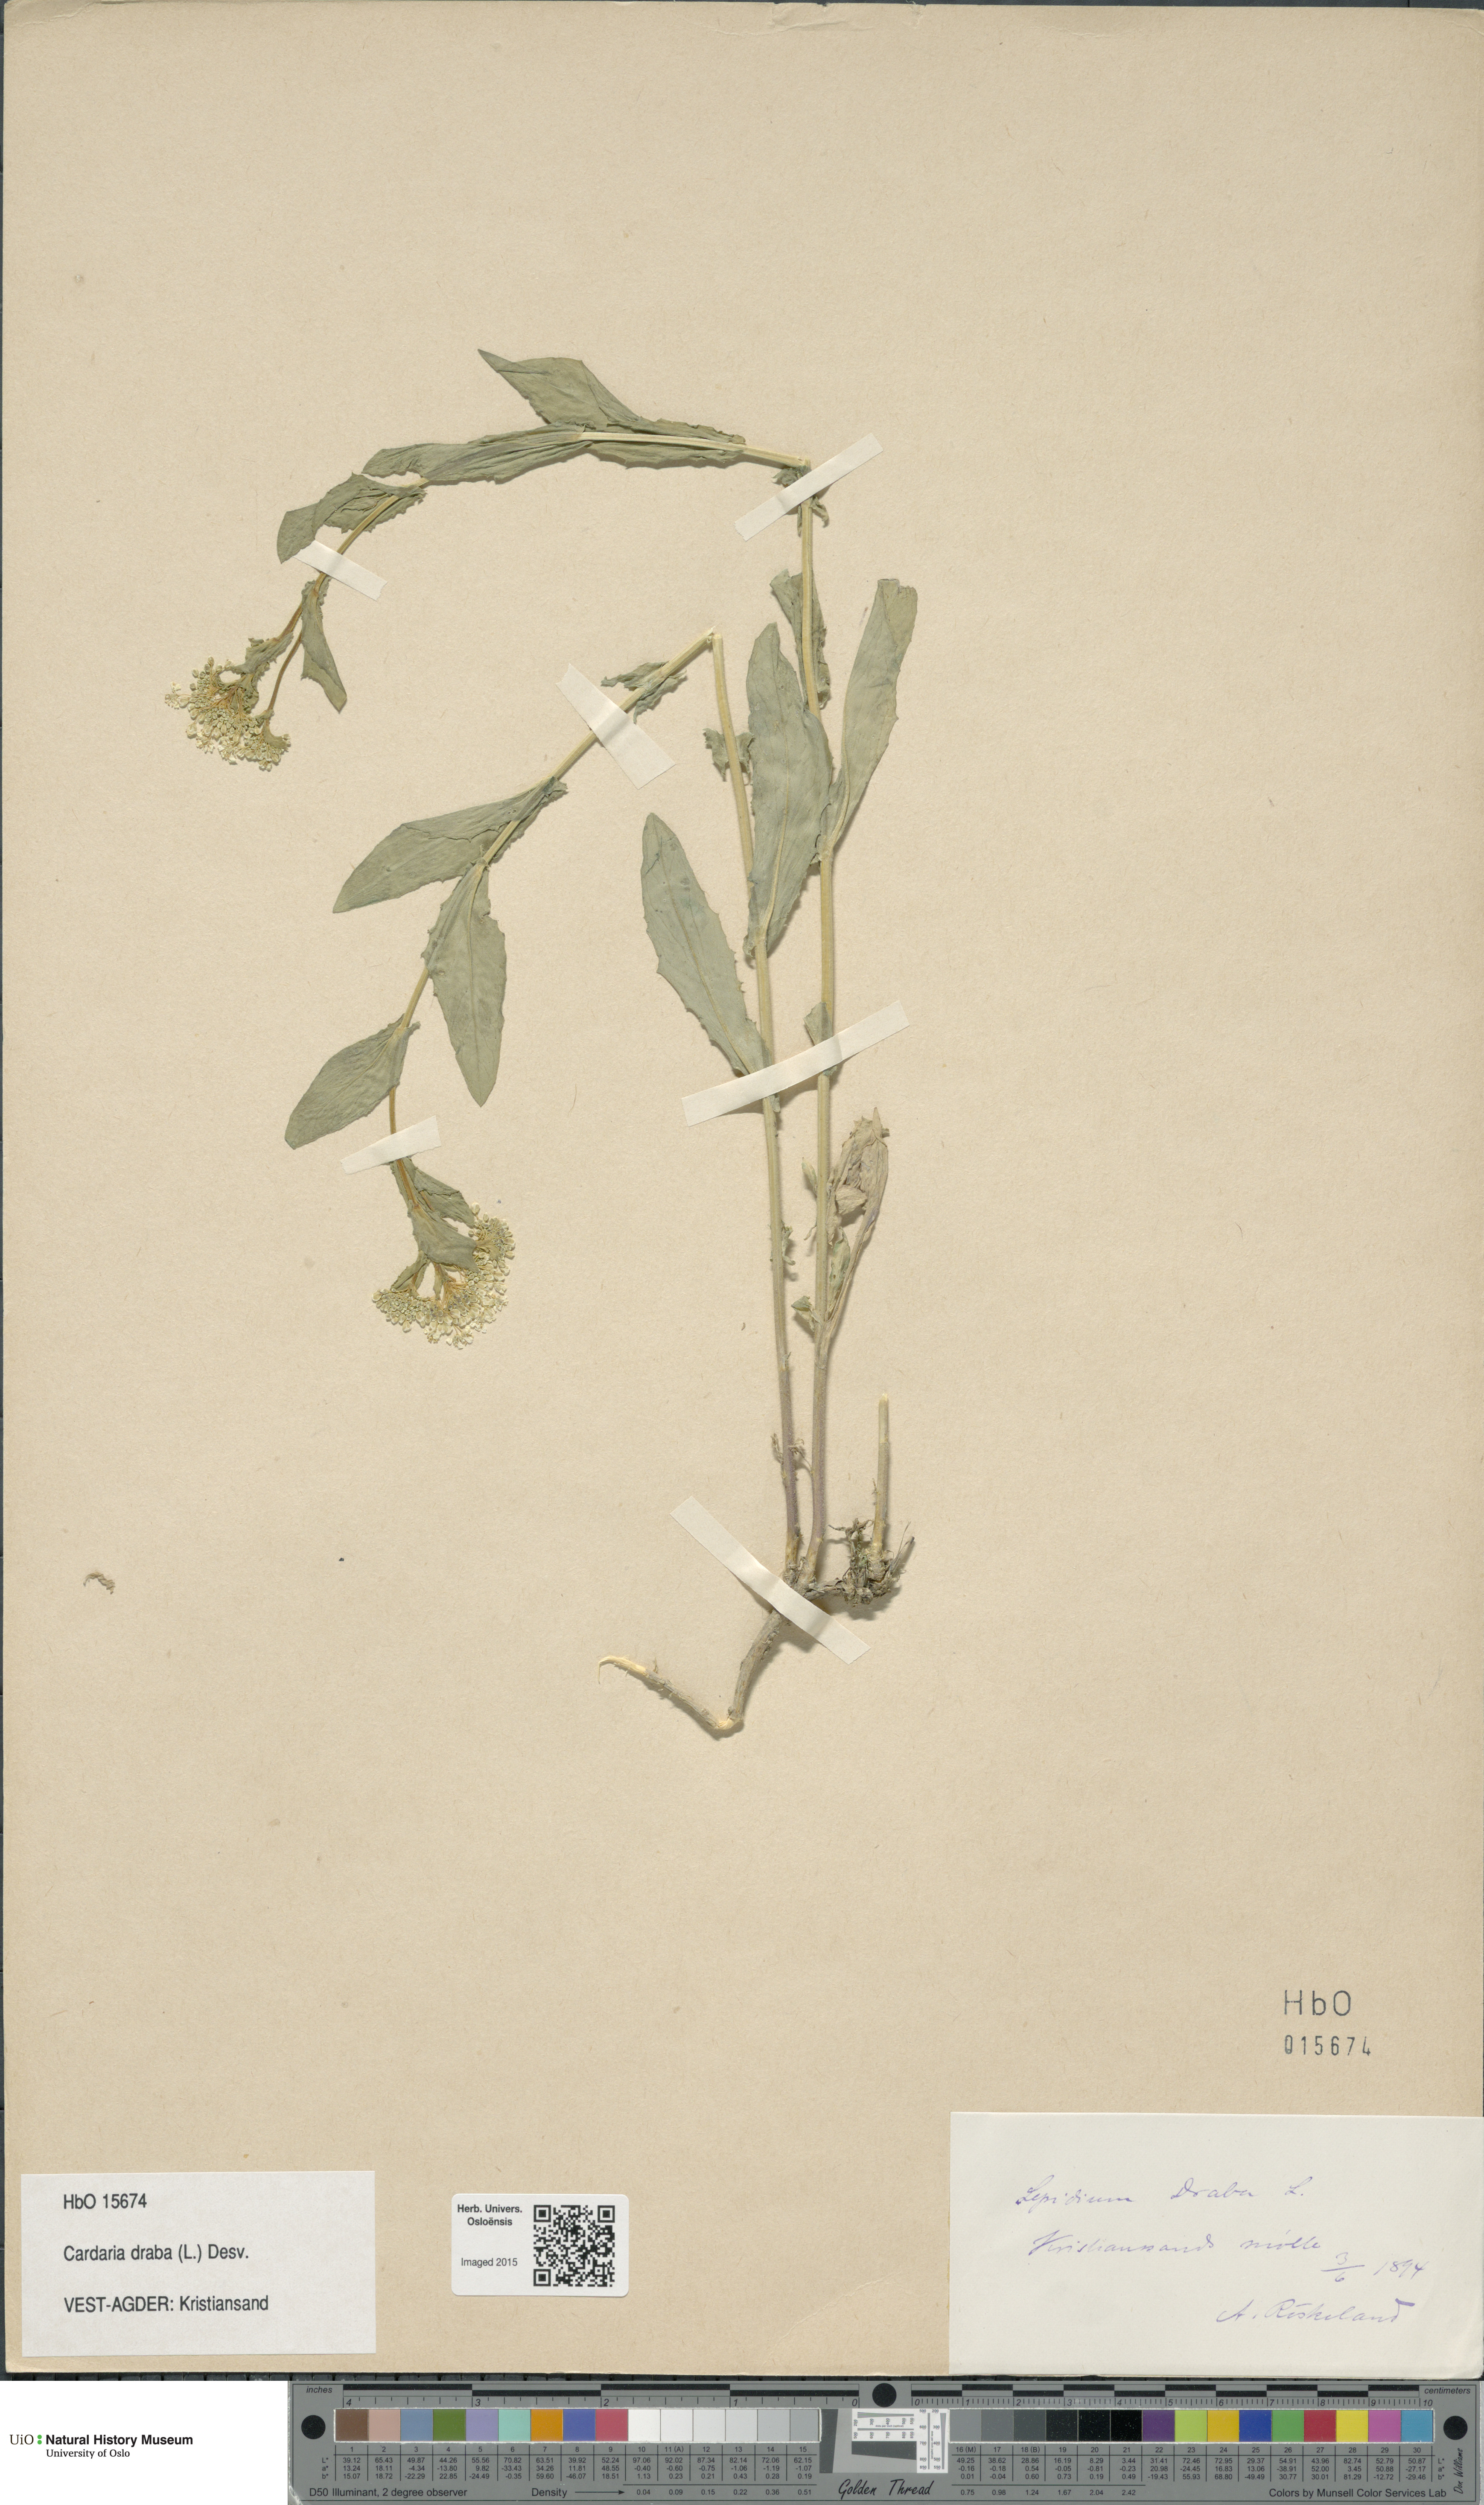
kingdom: Plantae
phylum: Tracheophyta
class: Magnoliopsida
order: Brassicales
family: Brassicaceae
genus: Lepidium
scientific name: Lepidium draba
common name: Hoary cress
